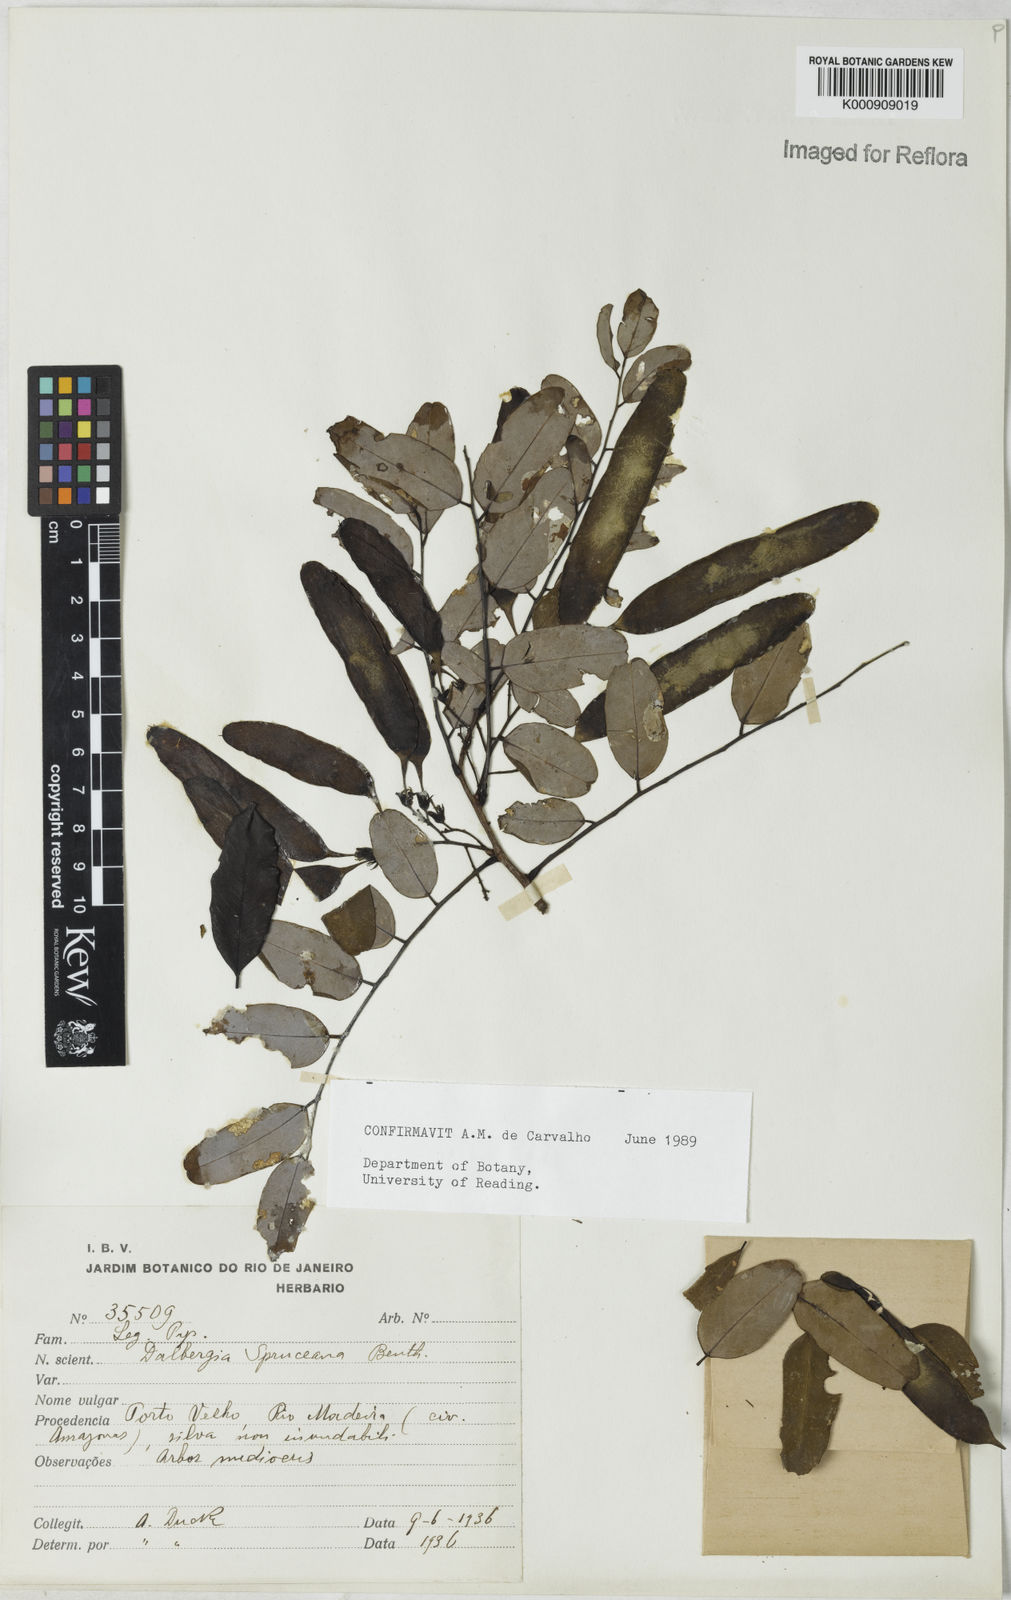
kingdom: Plantae
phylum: Tracheophyta
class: Magnoliopsida
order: Fabales
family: Fabaceae
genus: Dalbergia
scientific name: Dalbergia spruceana
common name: Amazon rosewood
